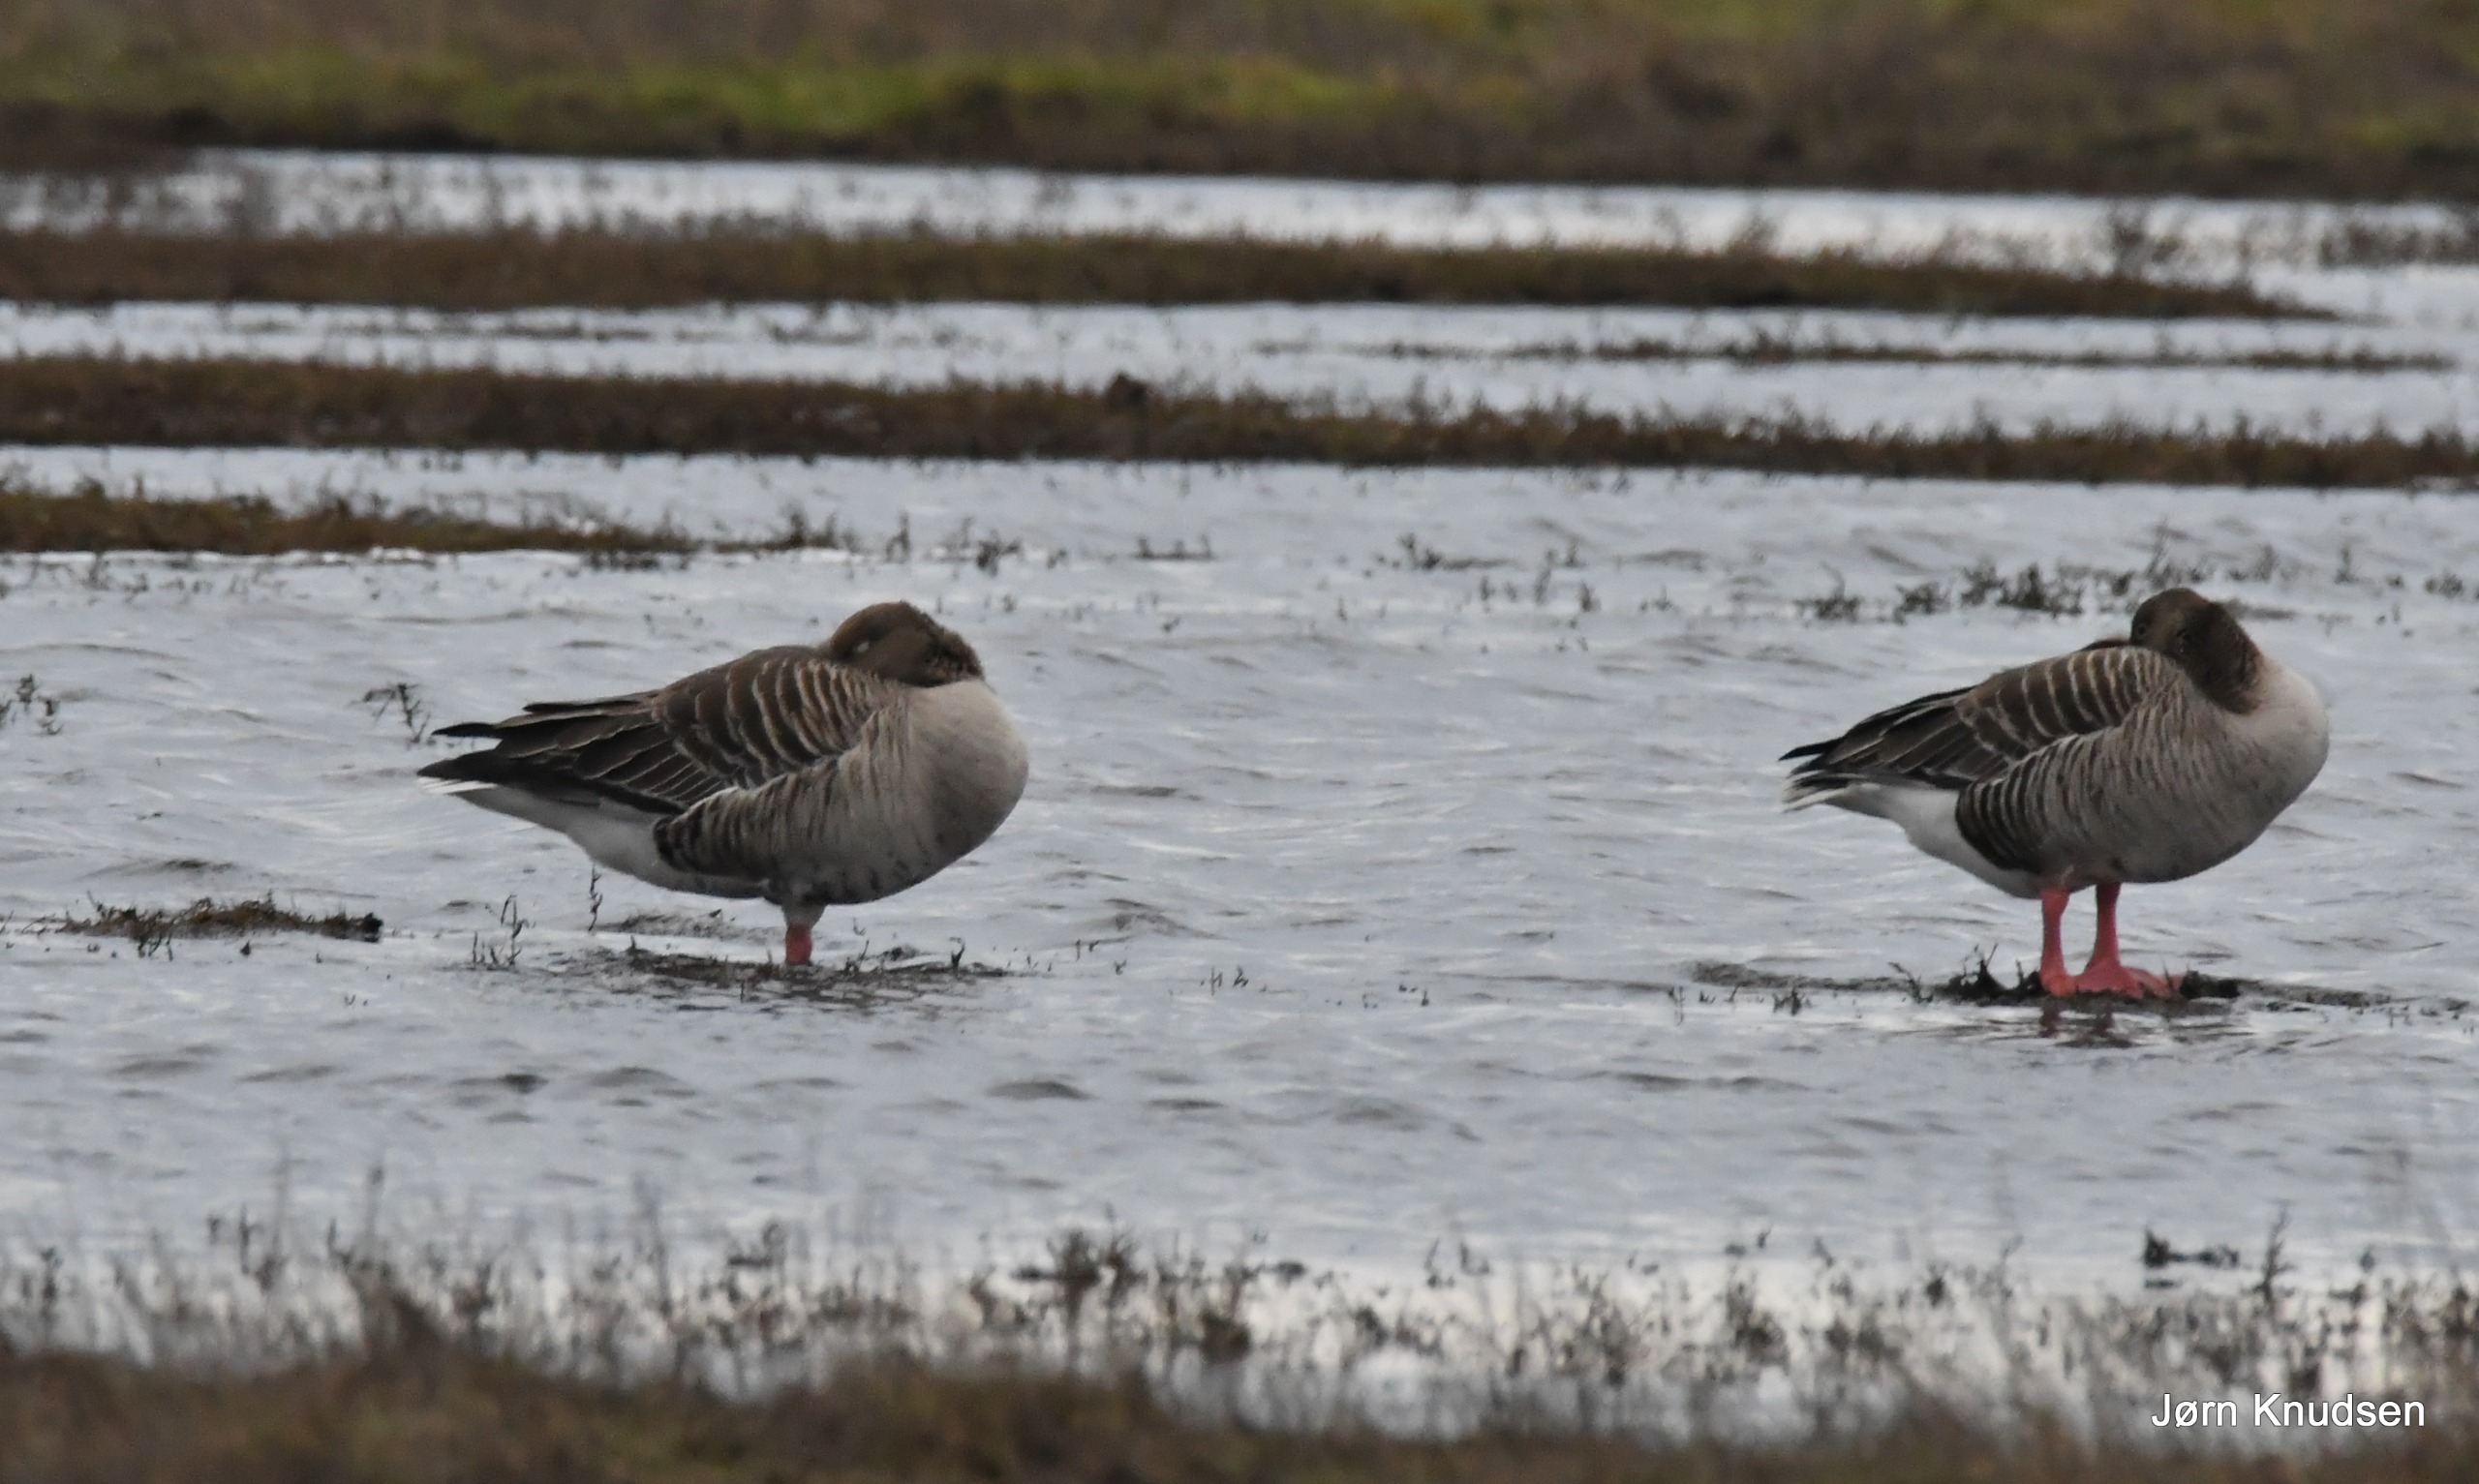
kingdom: Animalia
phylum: Chordata
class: Aves
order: Anseriformes
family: Anatidae
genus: Anser
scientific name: Anser anser
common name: Grågås
